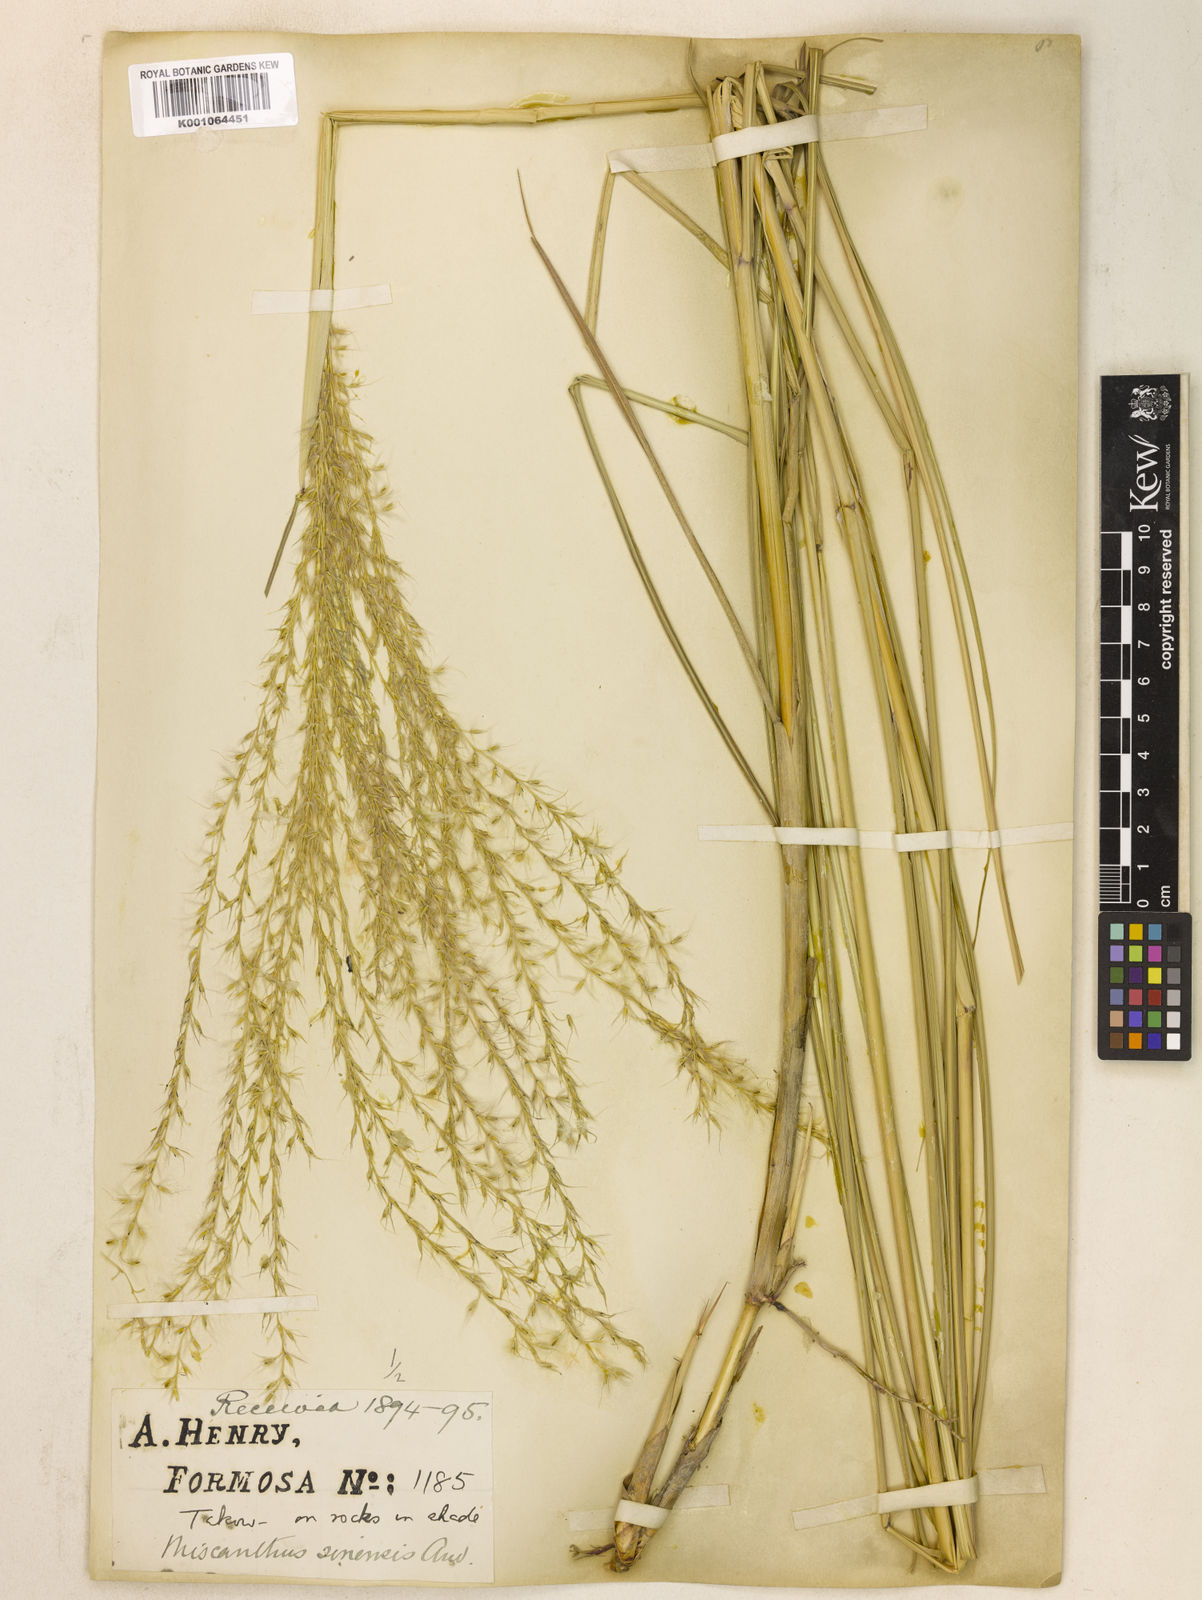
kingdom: Plantae
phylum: Tracheophyta
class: Liliopsida
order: Poales
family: Poaceae
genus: Miscanthus
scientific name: Miscanthus sinensis
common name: Chinese silvergrass
